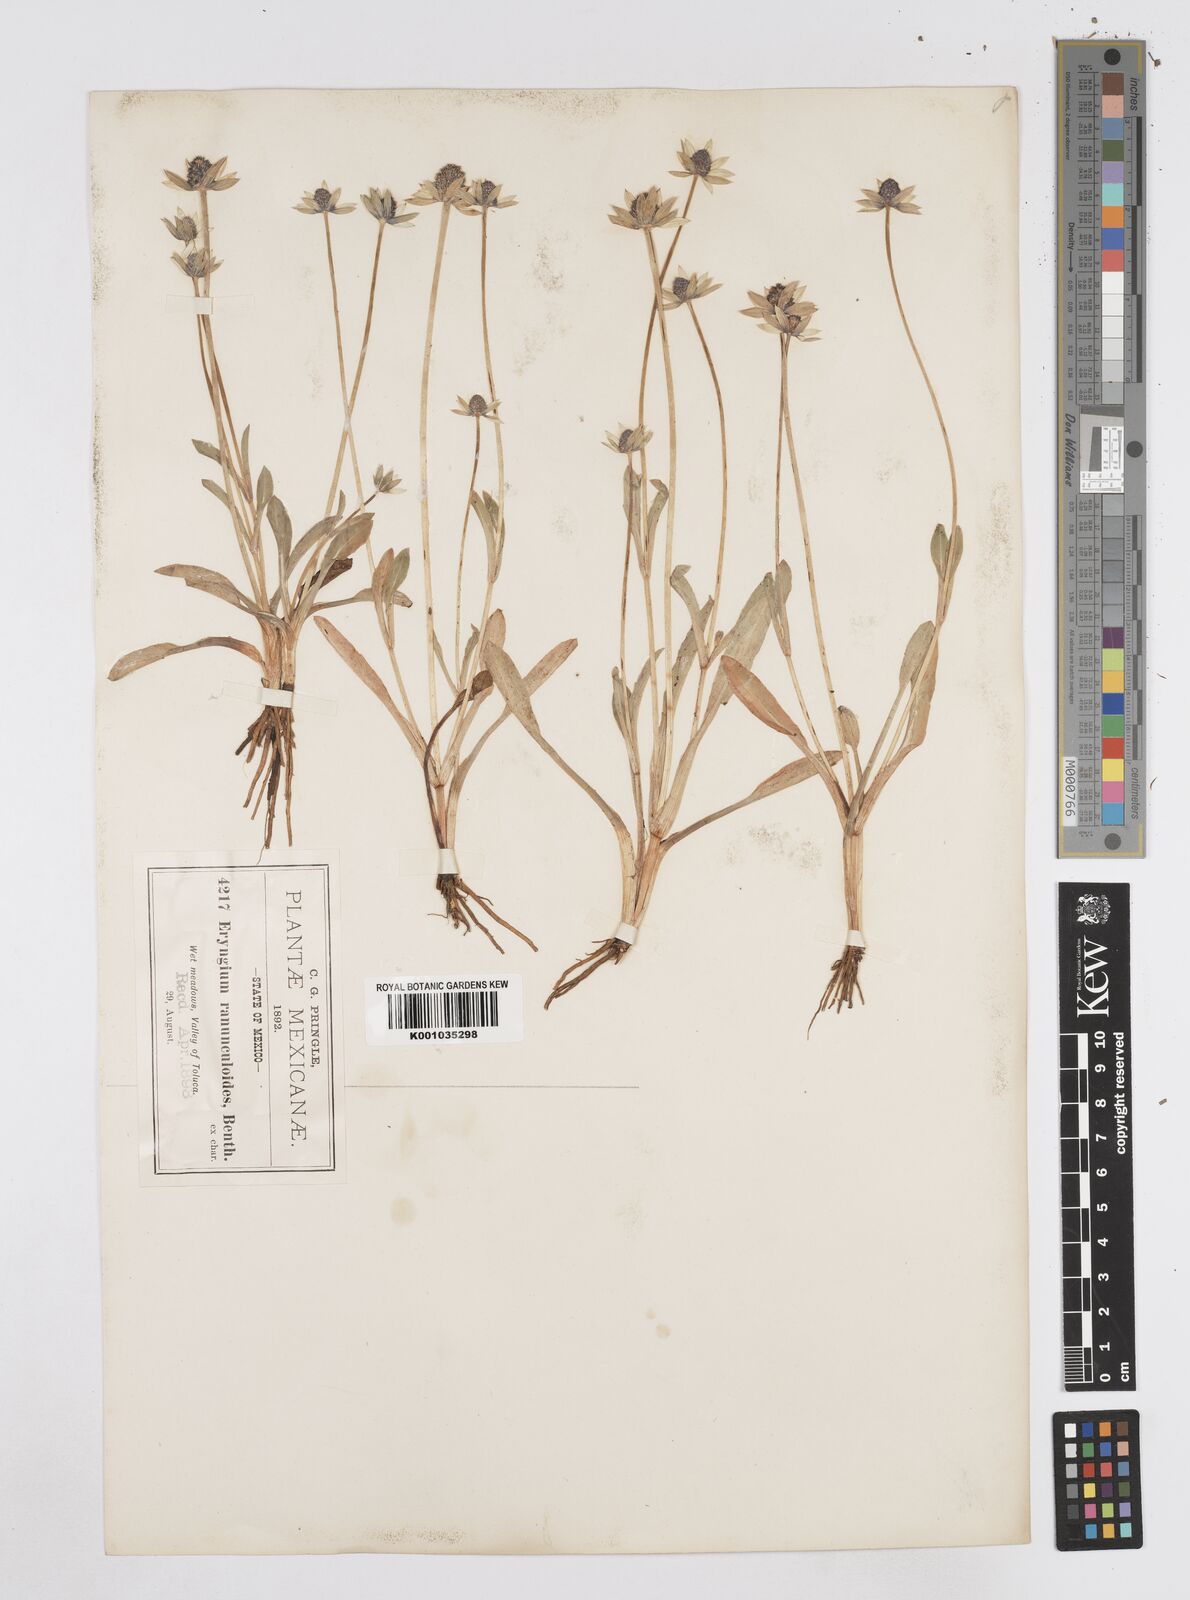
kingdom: Plantae
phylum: Tracheophyta
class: Magnoliopsida
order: Apiales
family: Apiaceae
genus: Eryngium
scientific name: Eryngium subacaule
